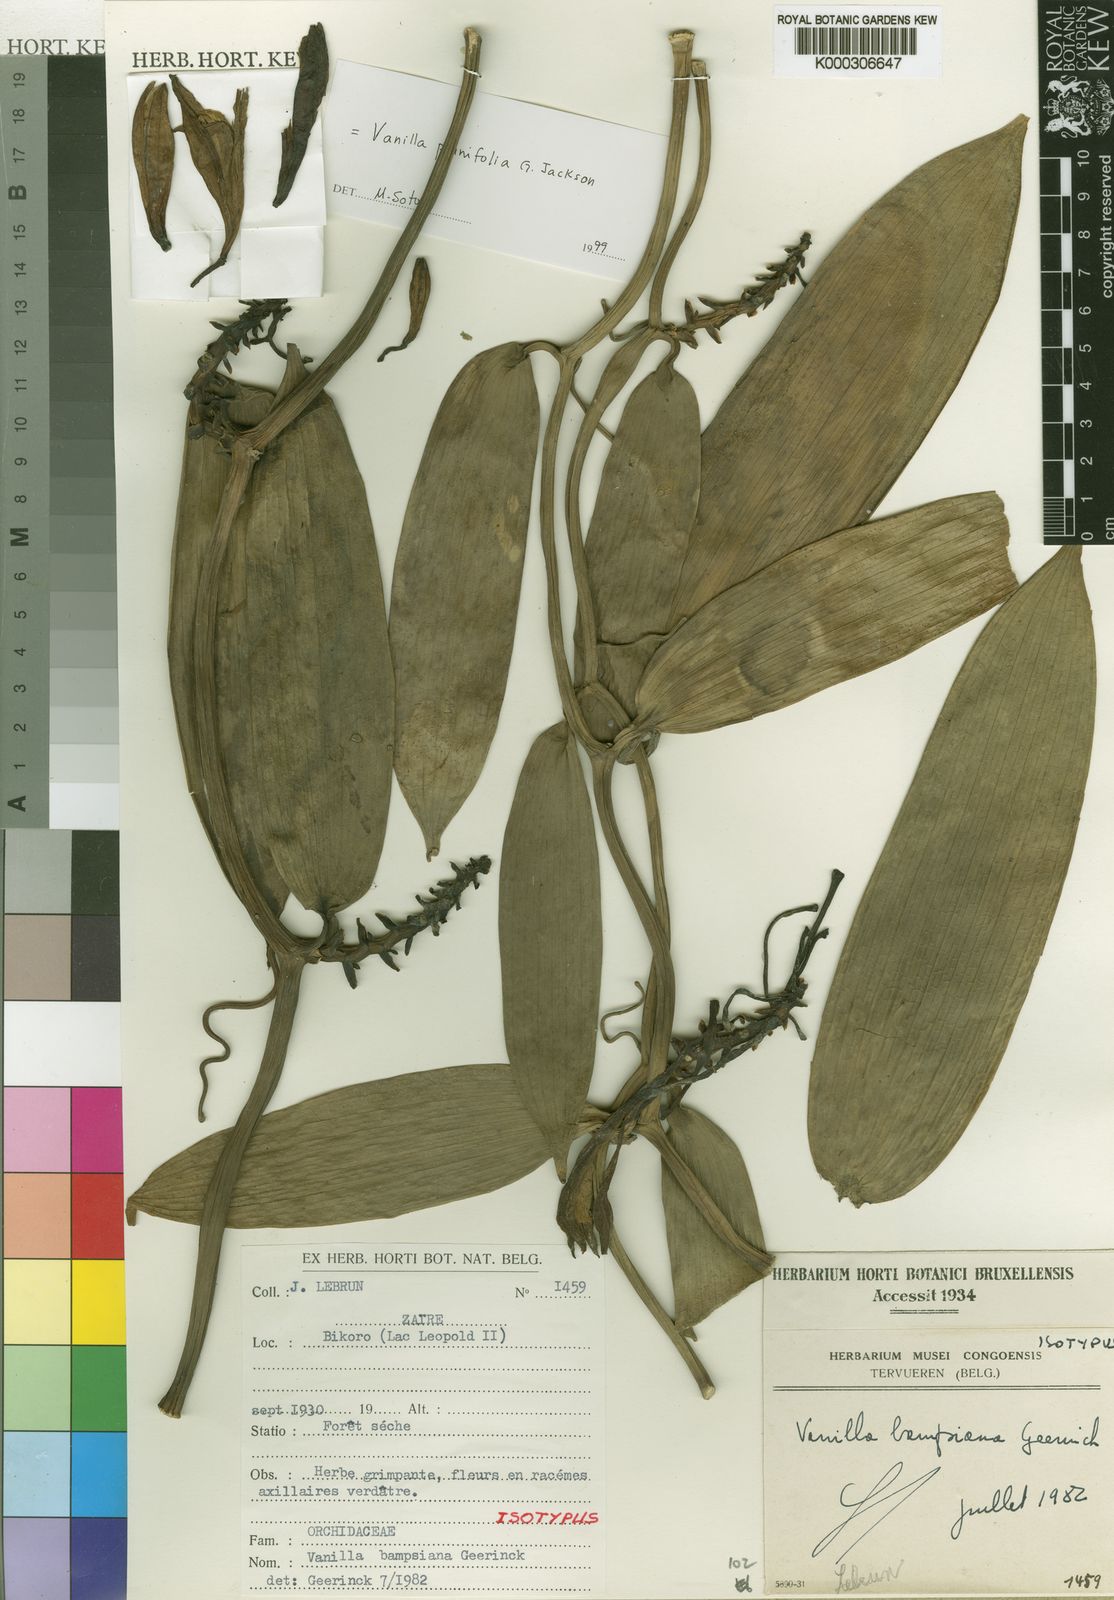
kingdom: Plantae
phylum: Tracheophyta
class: Liliopsida
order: Asparagales
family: Orchidaceae
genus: Vanilla
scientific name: Vanilla planifolia
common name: Vanilla
